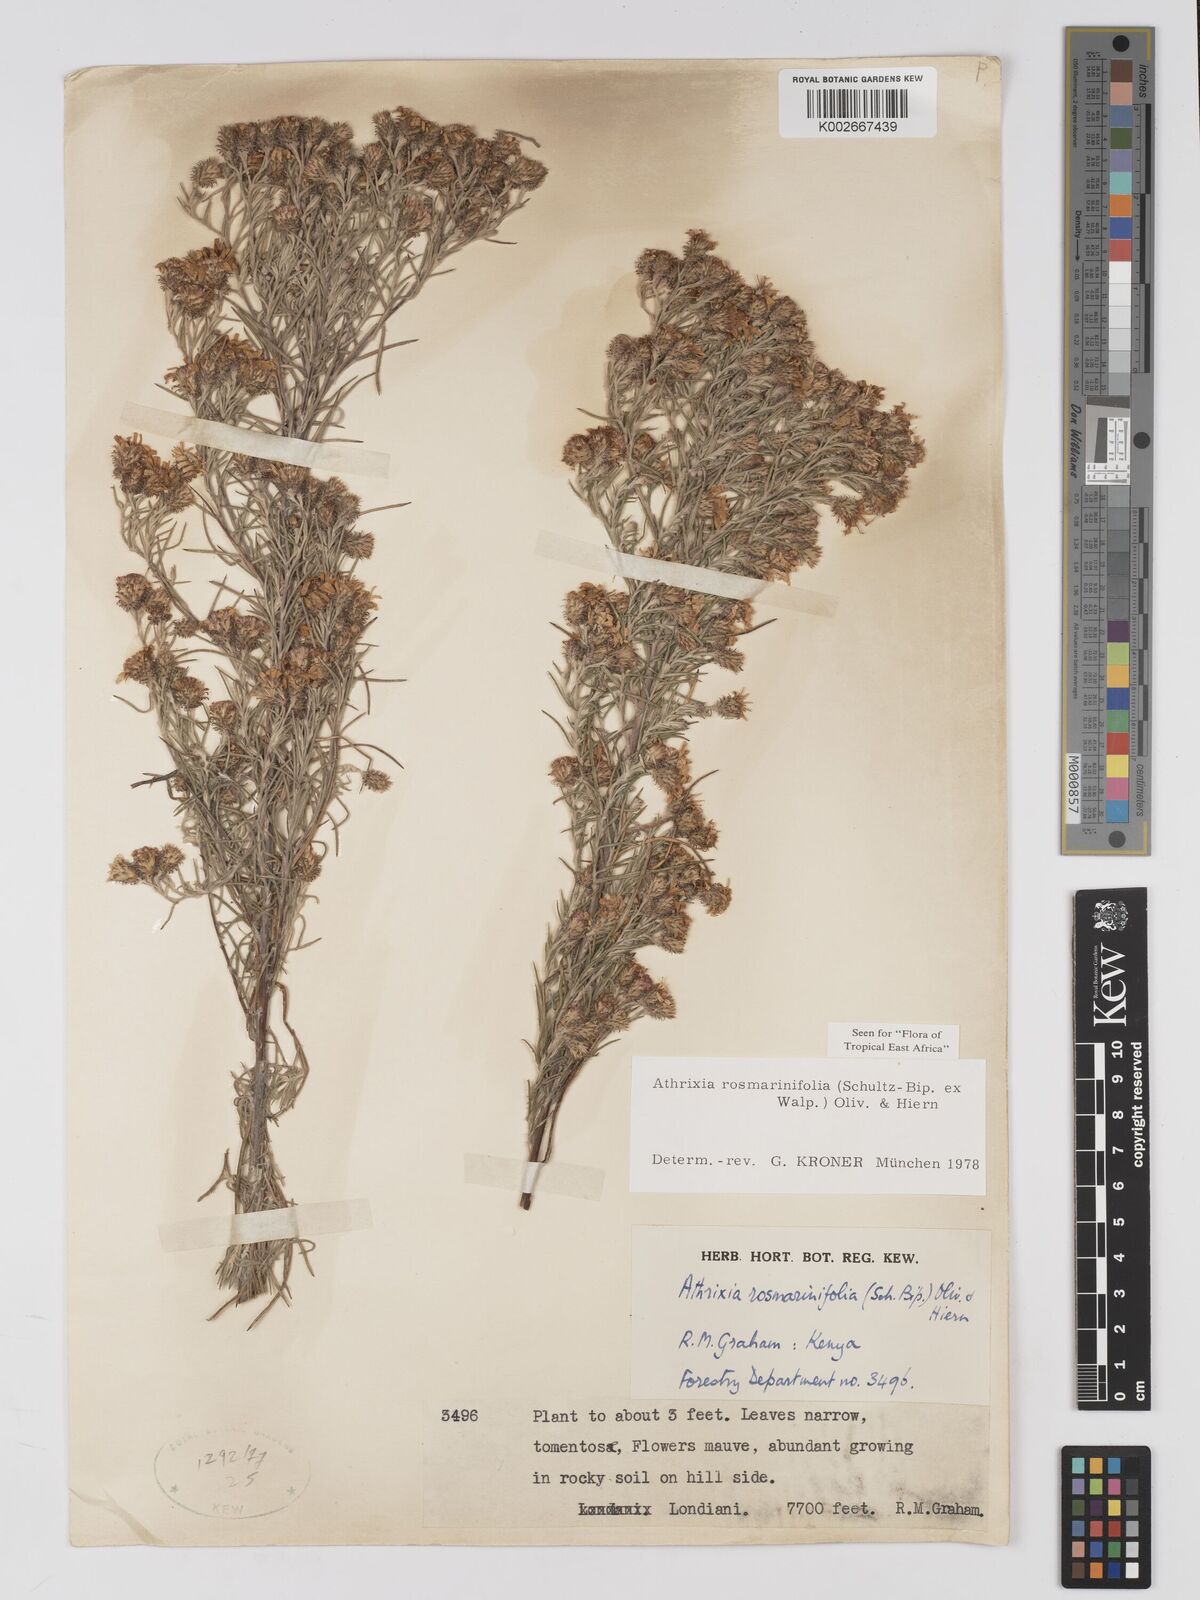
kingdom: Plantae
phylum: Tracheophyta
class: Magnoliopsida
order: Asterales
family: Asteraceae
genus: Athrixia
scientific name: Athrixia rosmarinifolia
